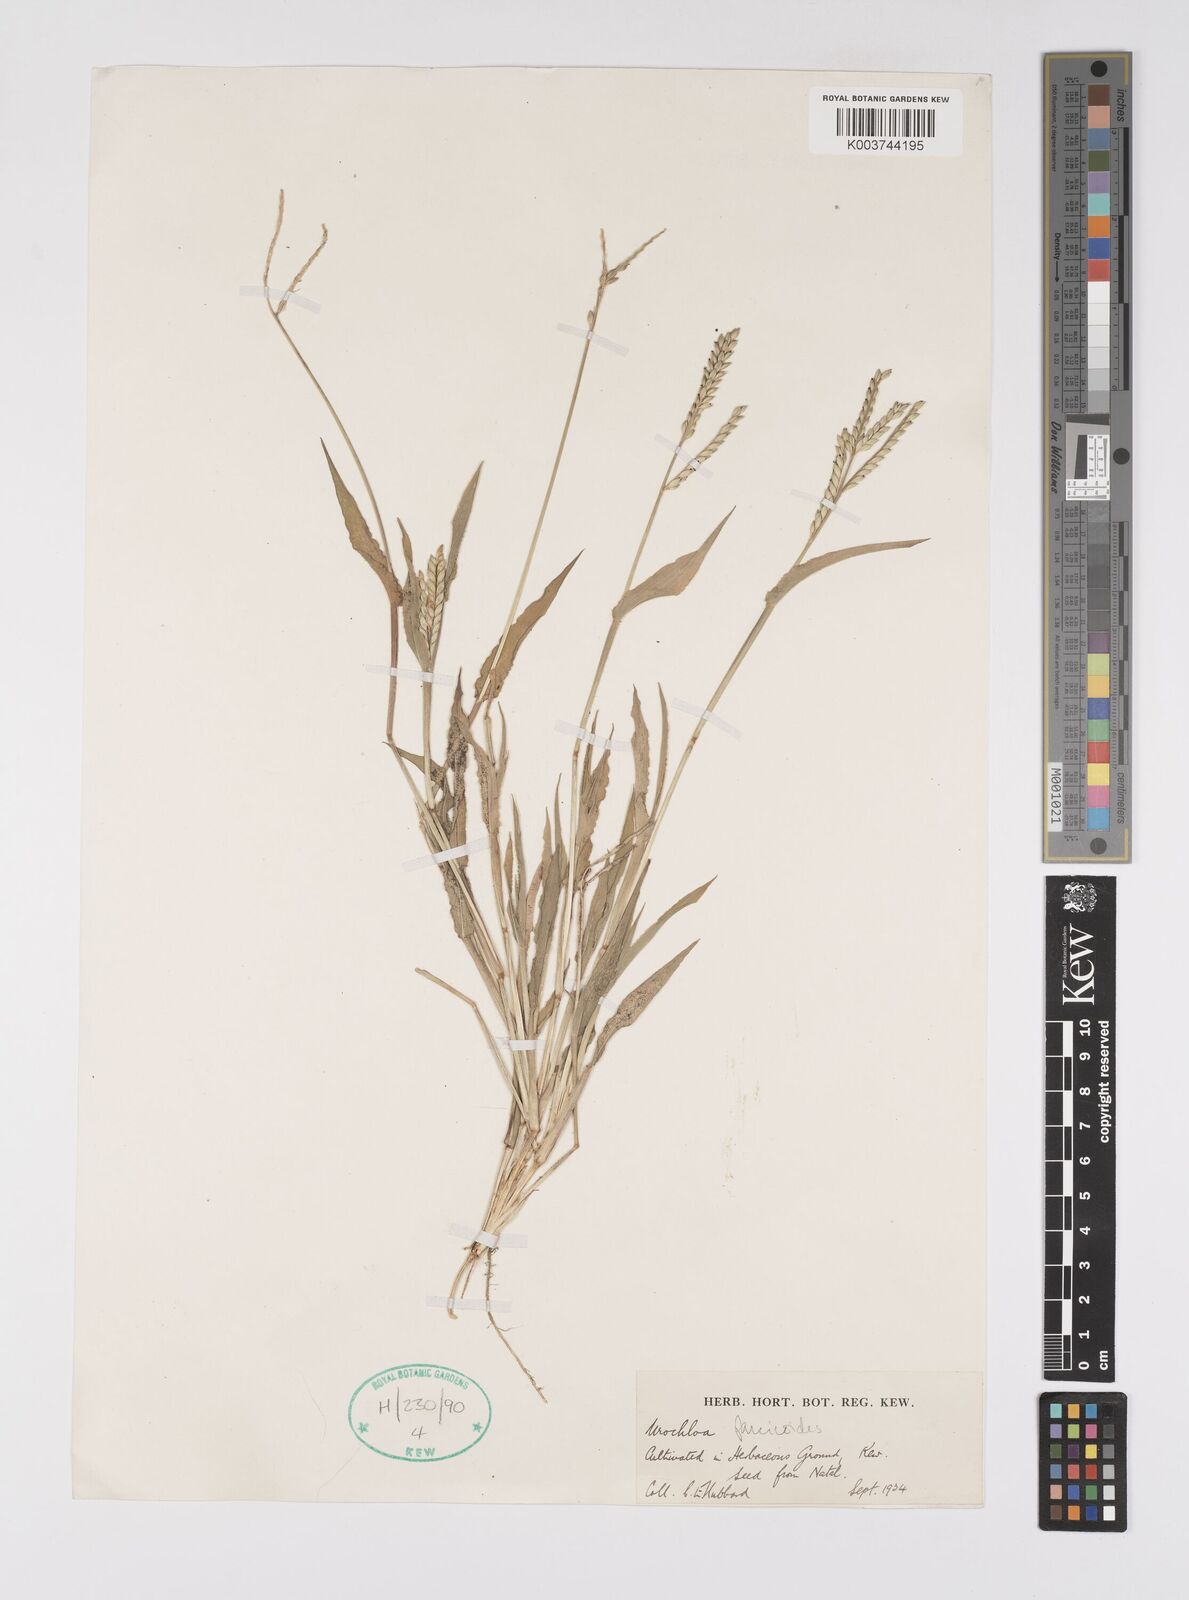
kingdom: Plantae
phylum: Tracheophyta
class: Liliopsida
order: Poales
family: Poaceae
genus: Urochloa
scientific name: Urochloa panicoides
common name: Sharp-flowered signal-grass
